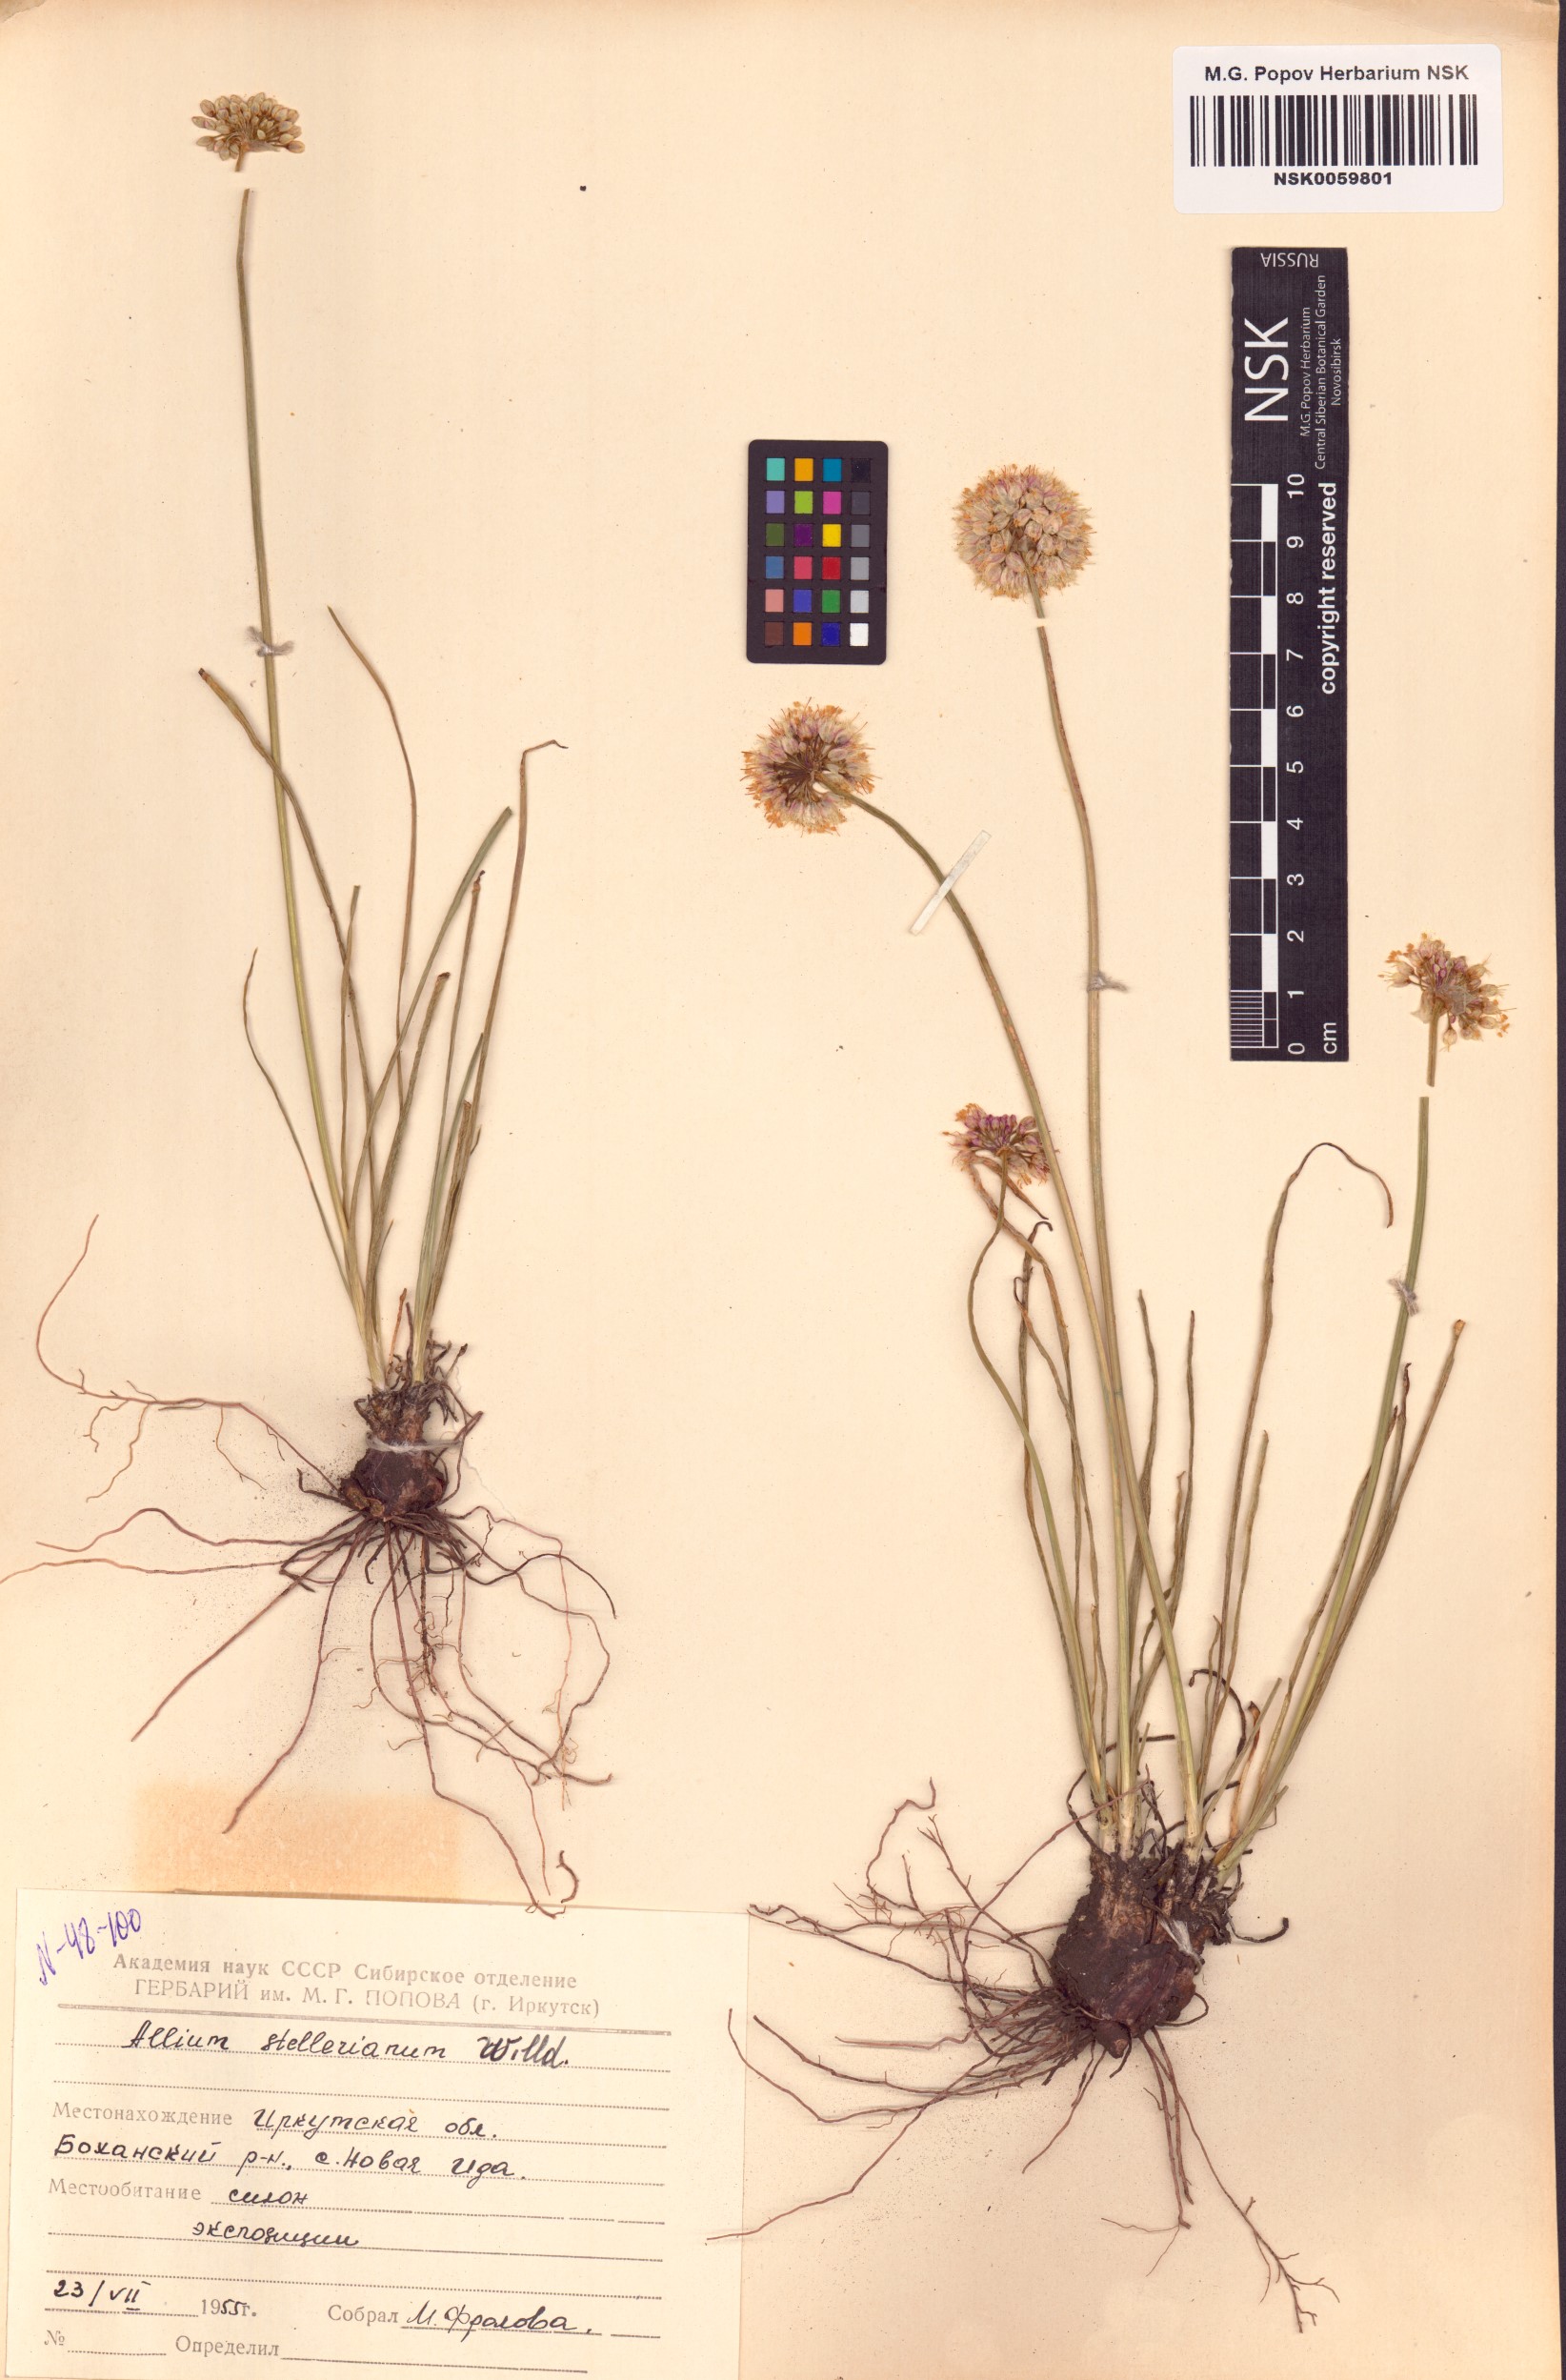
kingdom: Plantae
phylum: Tracheophyta
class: Liliopsida
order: Asparagales
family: Amaryllidaceae
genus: Allium
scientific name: Allium stellerianum
